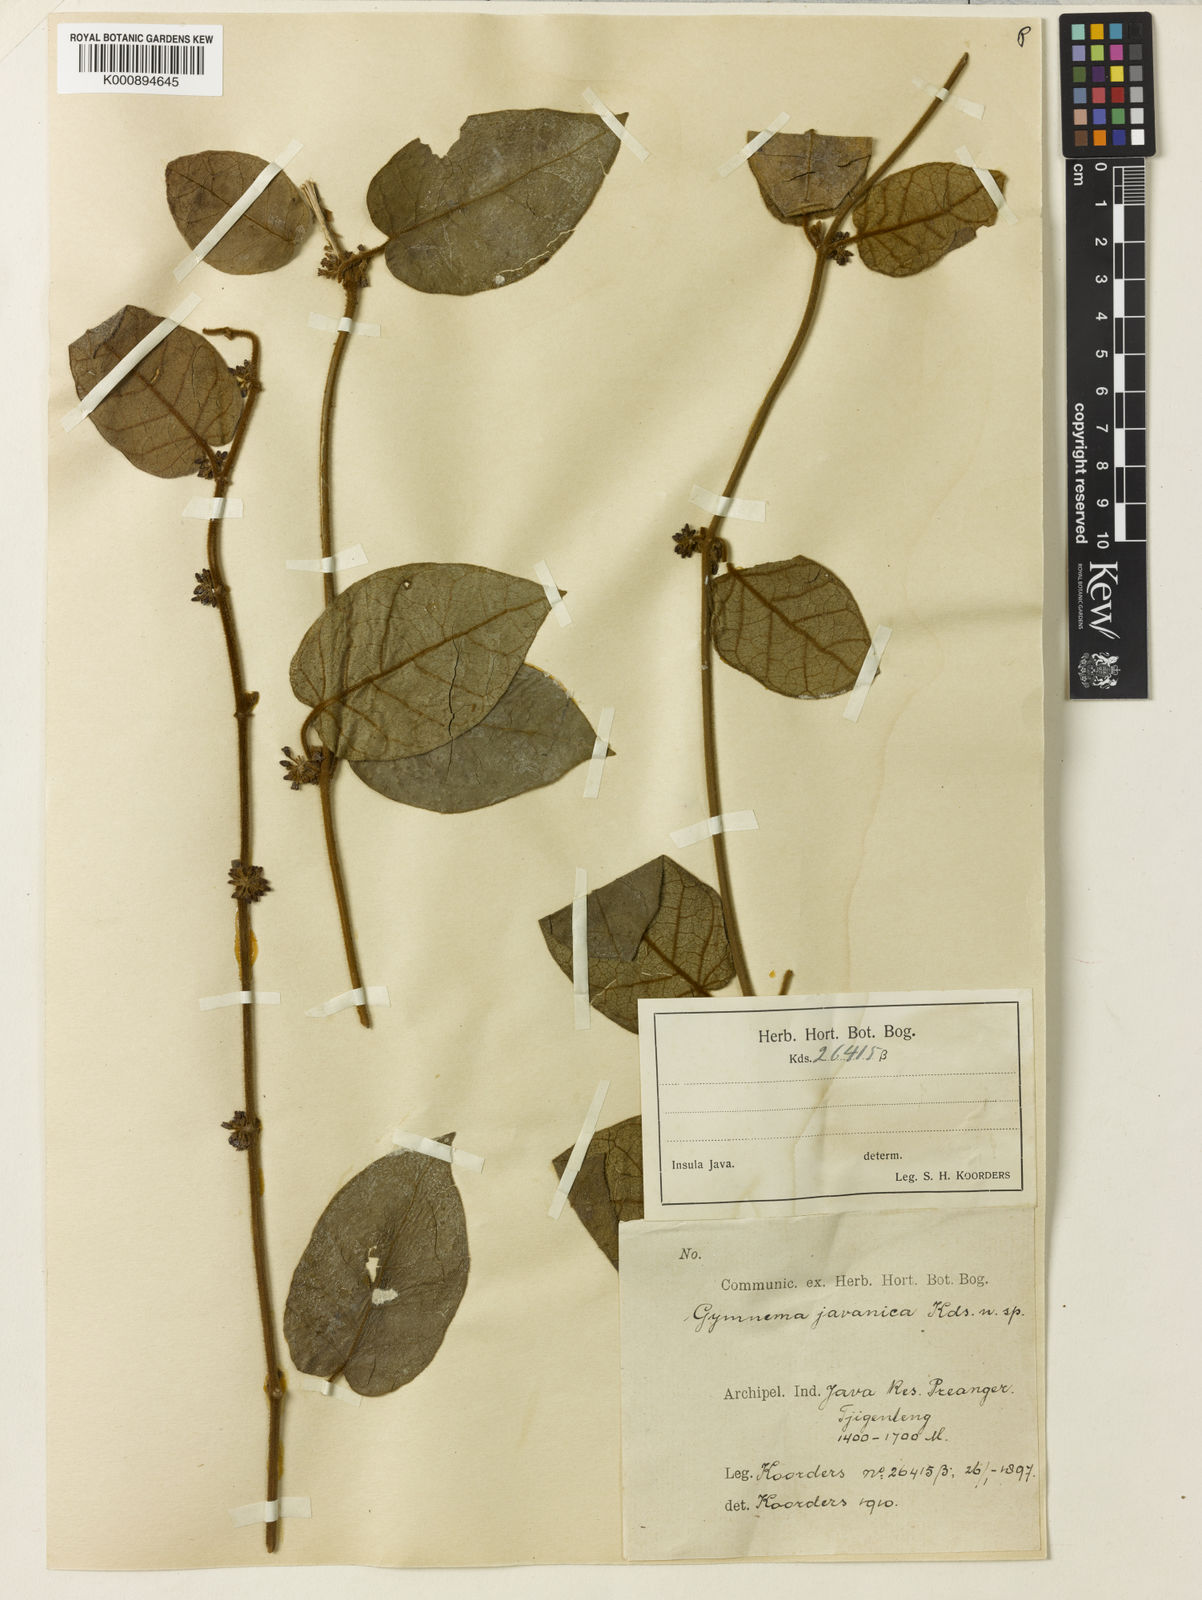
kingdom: Plantae
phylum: Tracheophyta
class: Magnoliopsida
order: Gentianales
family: Apocynaceae
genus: Gymnema
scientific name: Gymnema javanicum
